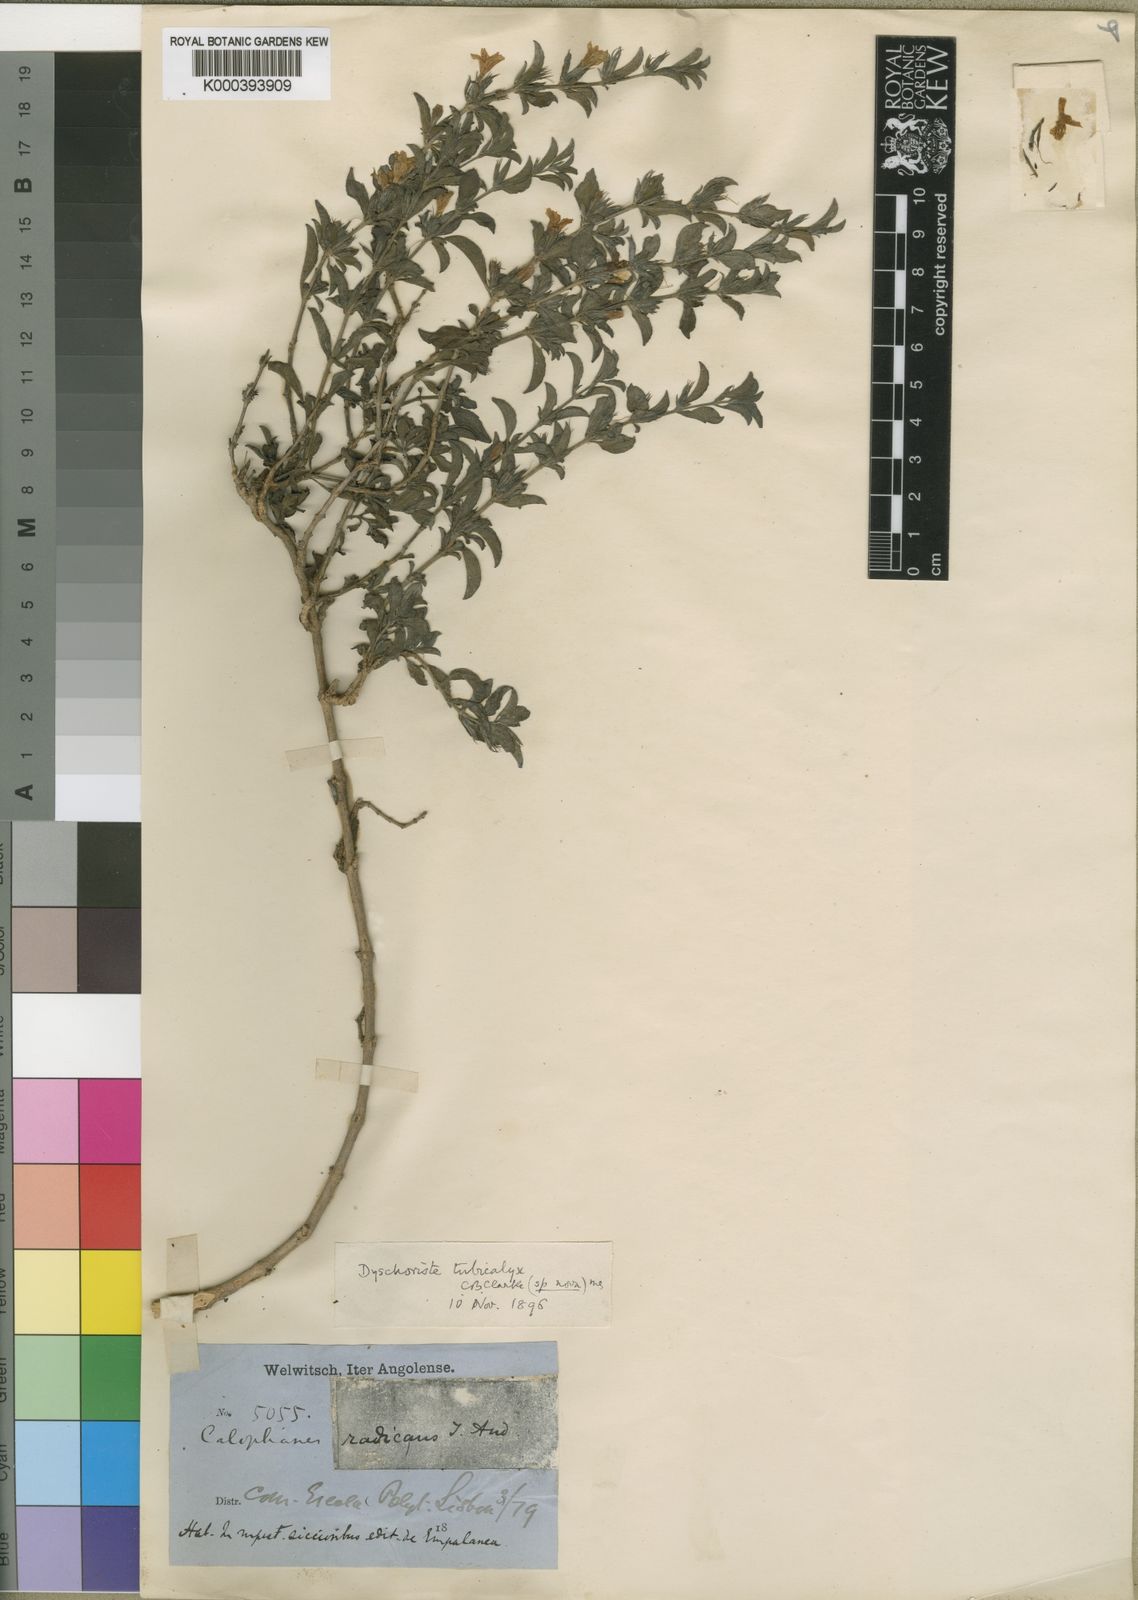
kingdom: Plantae
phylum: Tracheophyta
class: Magnoliopsida
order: Lamiales
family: Acanthaceae
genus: Dyschoriste
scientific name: Dyschoriste tubicalyx
